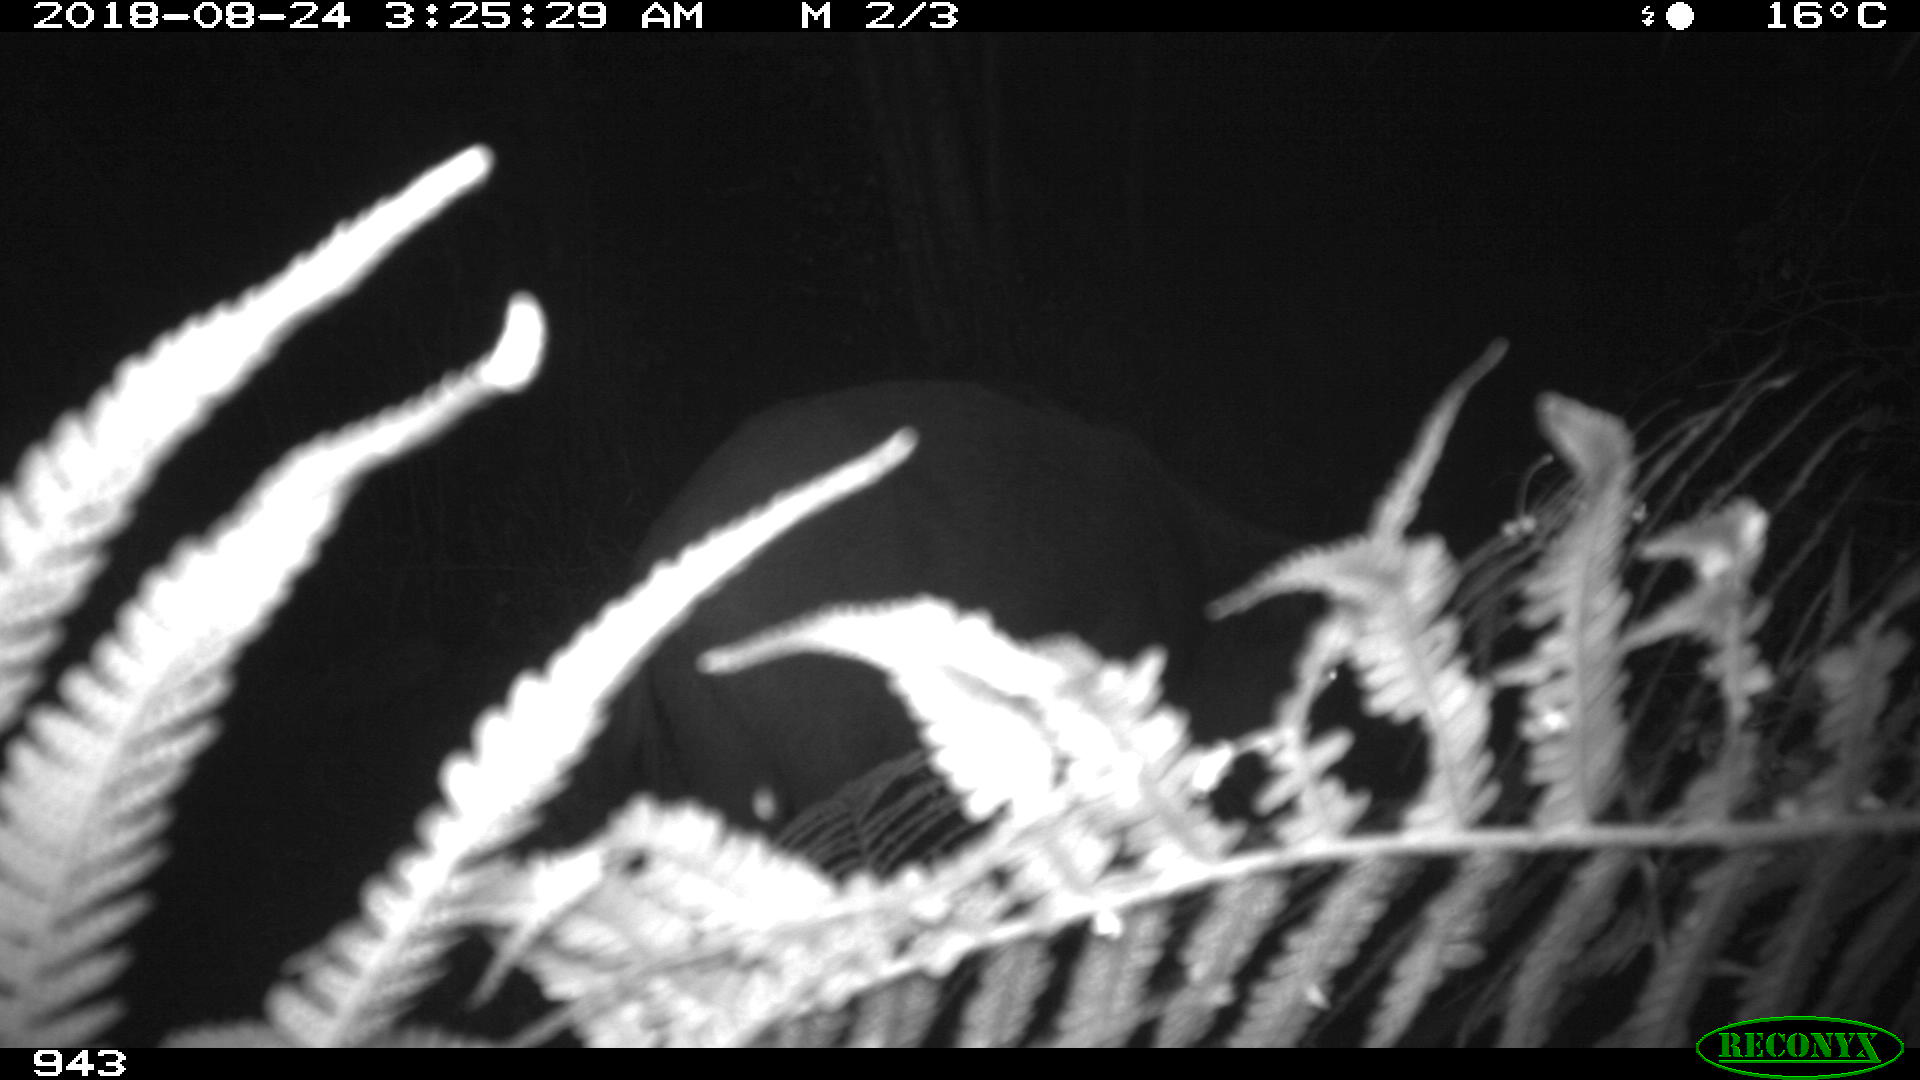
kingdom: Animalia
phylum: Chordata
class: Mammalia
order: Artiodactyla
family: Suidae
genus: Sus
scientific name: Sus scrofa
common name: Wild boar
